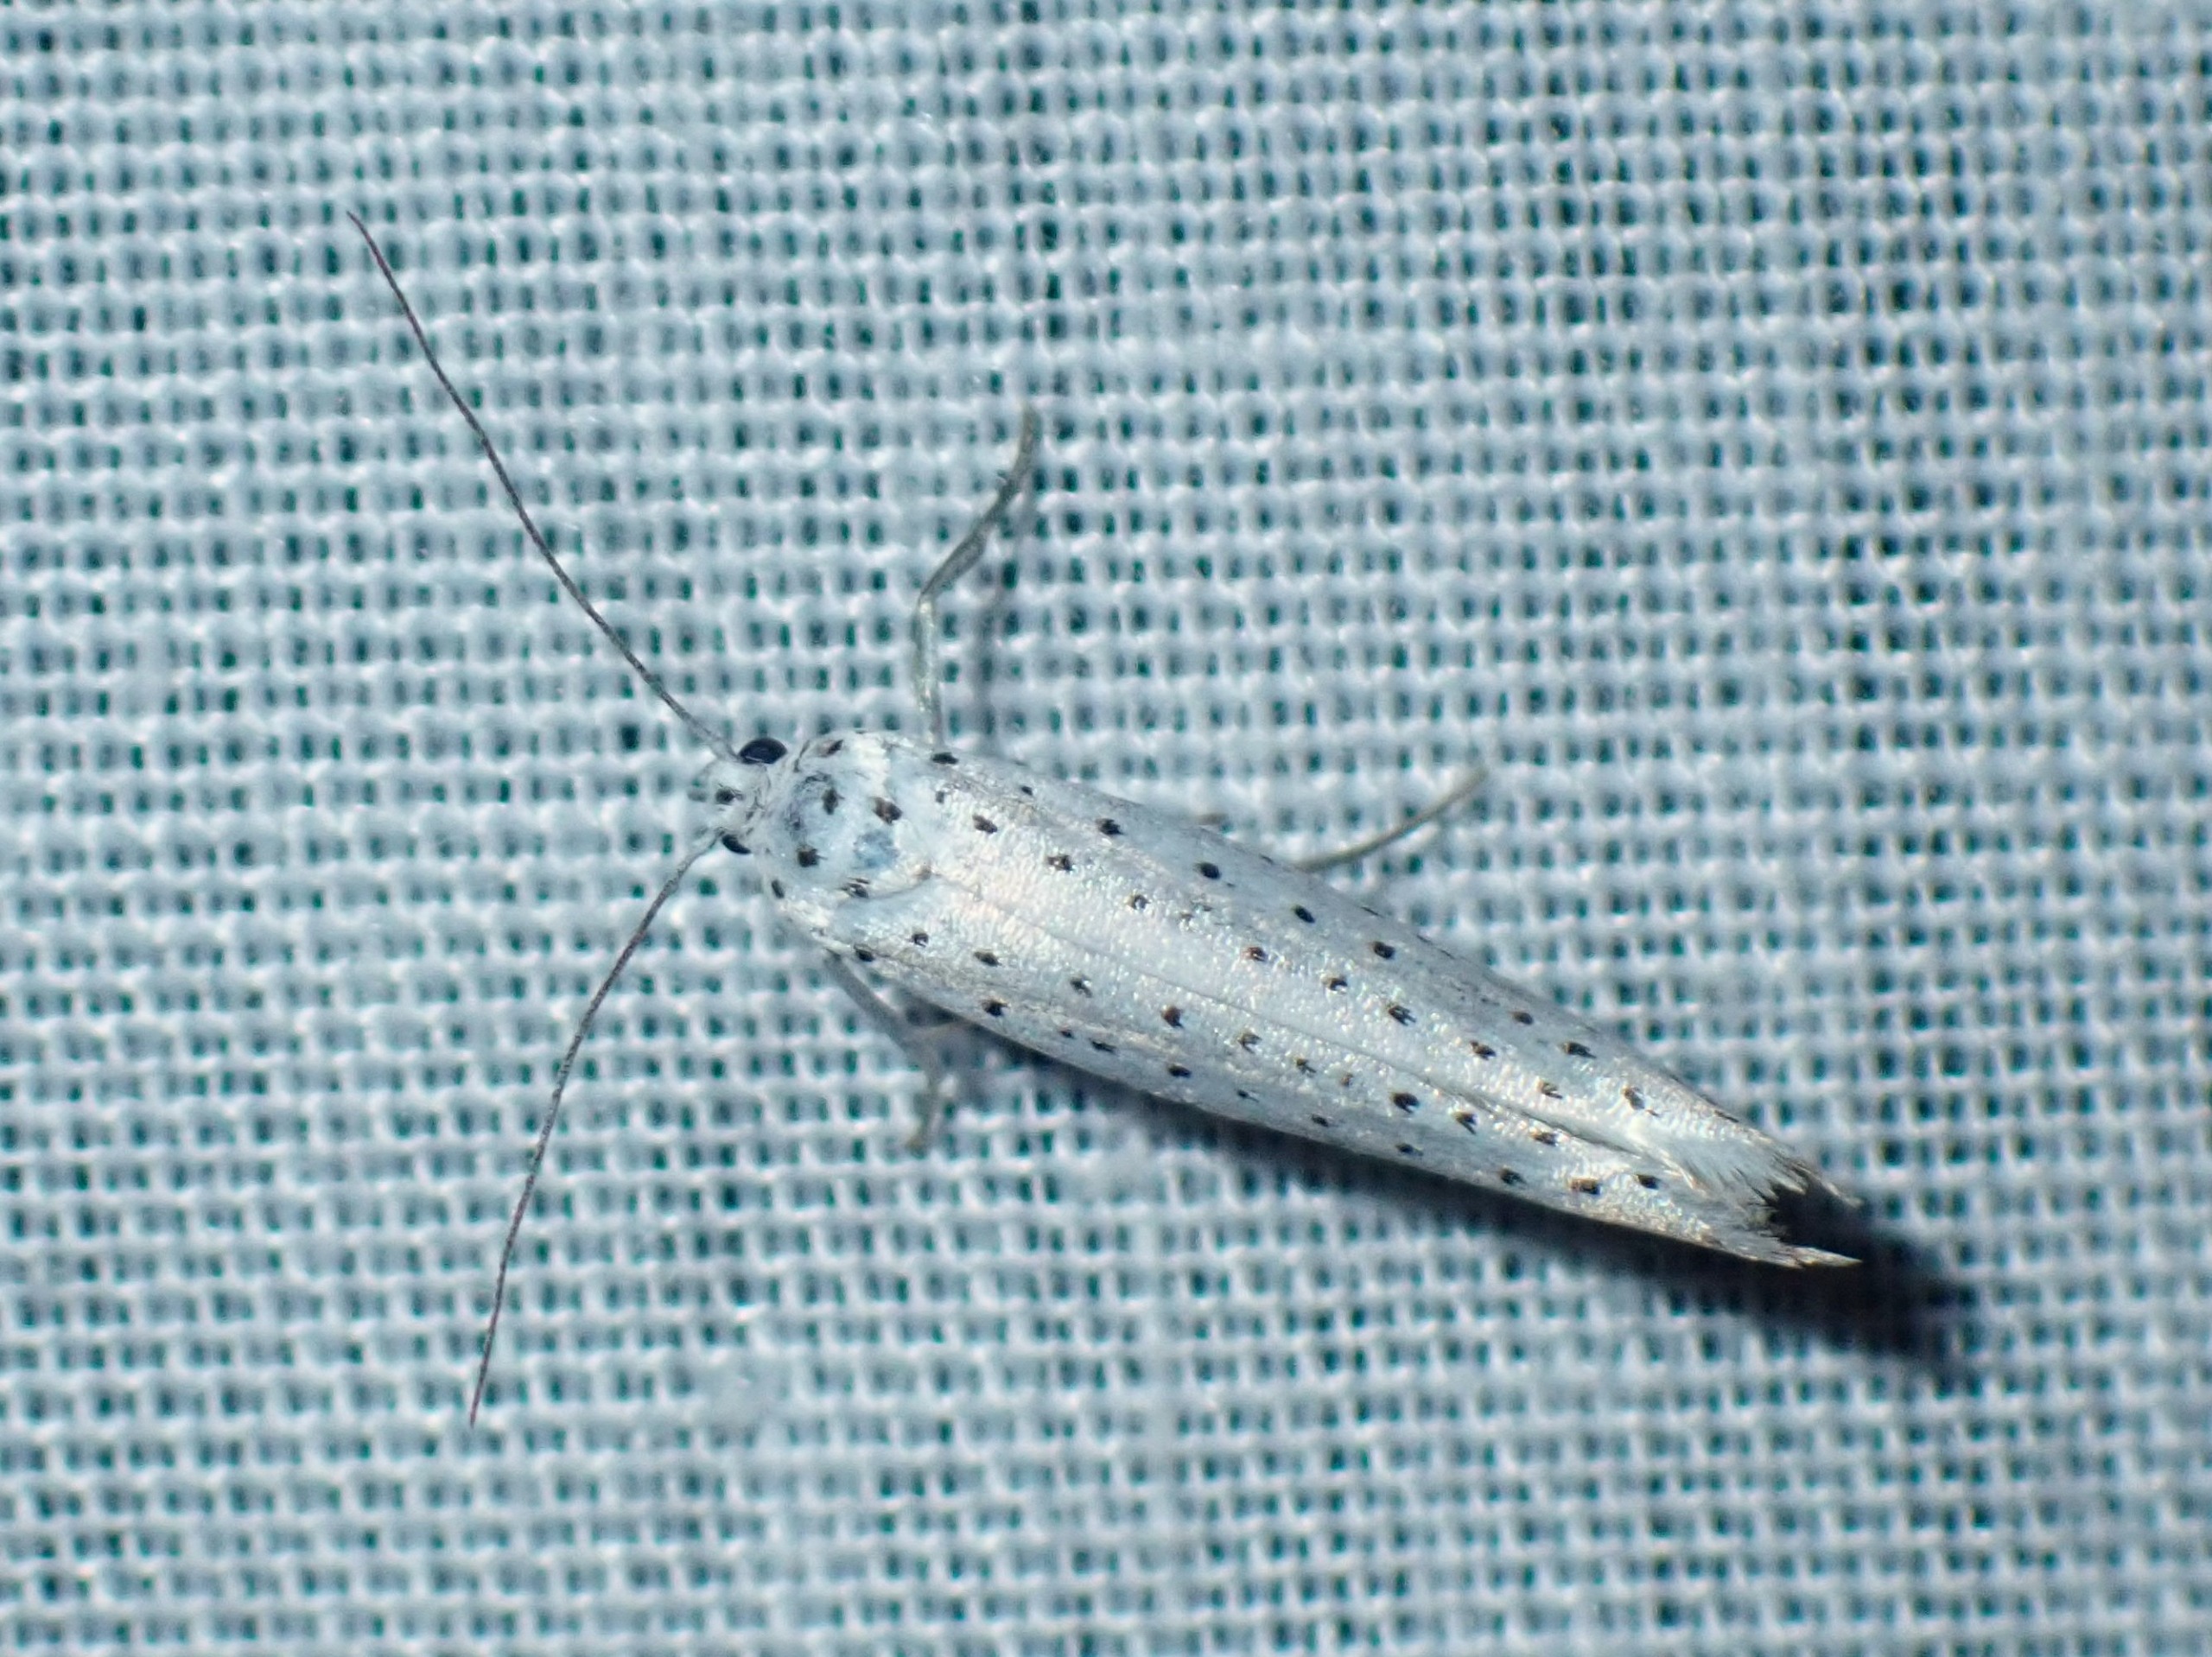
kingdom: Animalia
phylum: Arthropoda
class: Insecta
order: Lepidoptera
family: Yponomeutidae
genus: Yponomeuta
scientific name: Yponomeuta evonymella
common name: Hægspindemøl
